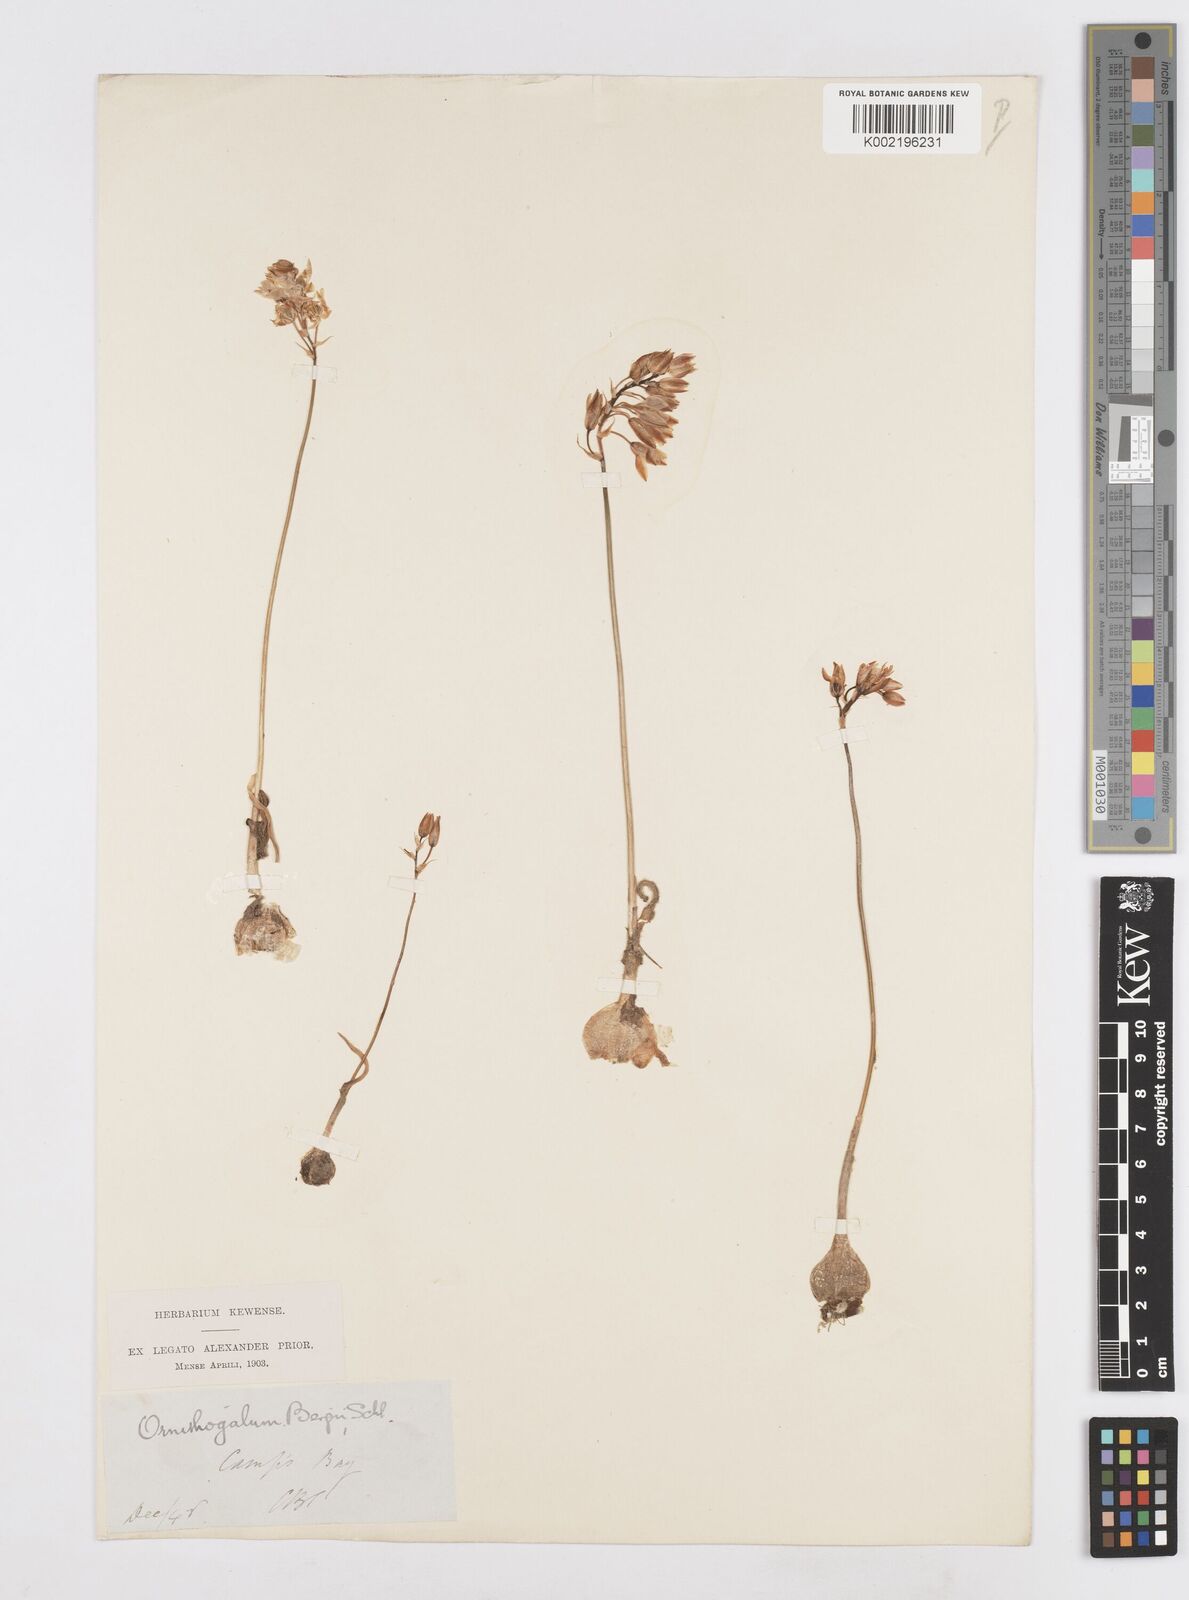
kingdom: Plantae
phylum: Tracheophyta
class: Liliopsida
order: Asparagales
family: Asparagaceae
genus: Ornithogalum
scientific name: Ornithogalum hispidum
